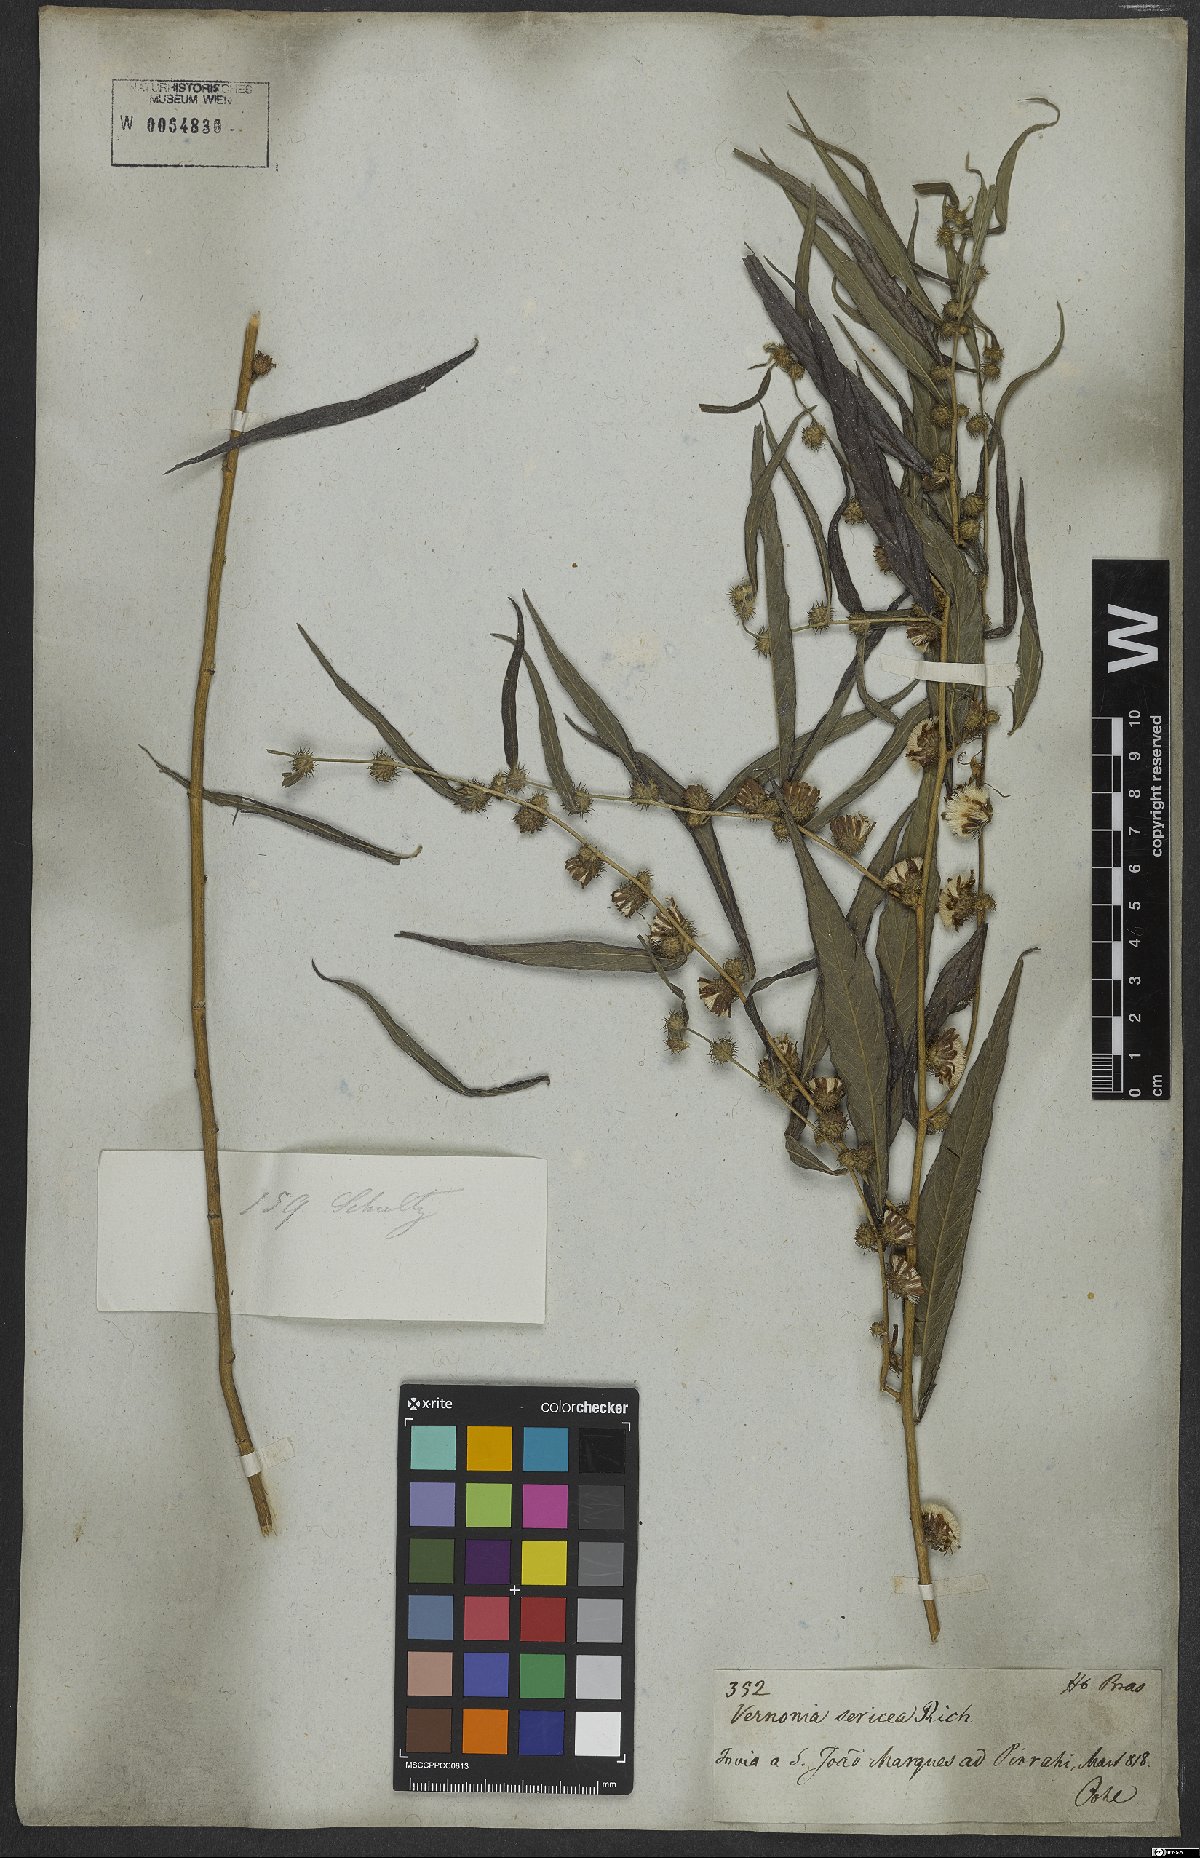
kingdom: Plantae
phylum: Tracheophyta
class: Magnoliopsida
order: Asterales
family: Asteraceae
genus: Lepidaploa
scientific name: Lepidaploa sericea
